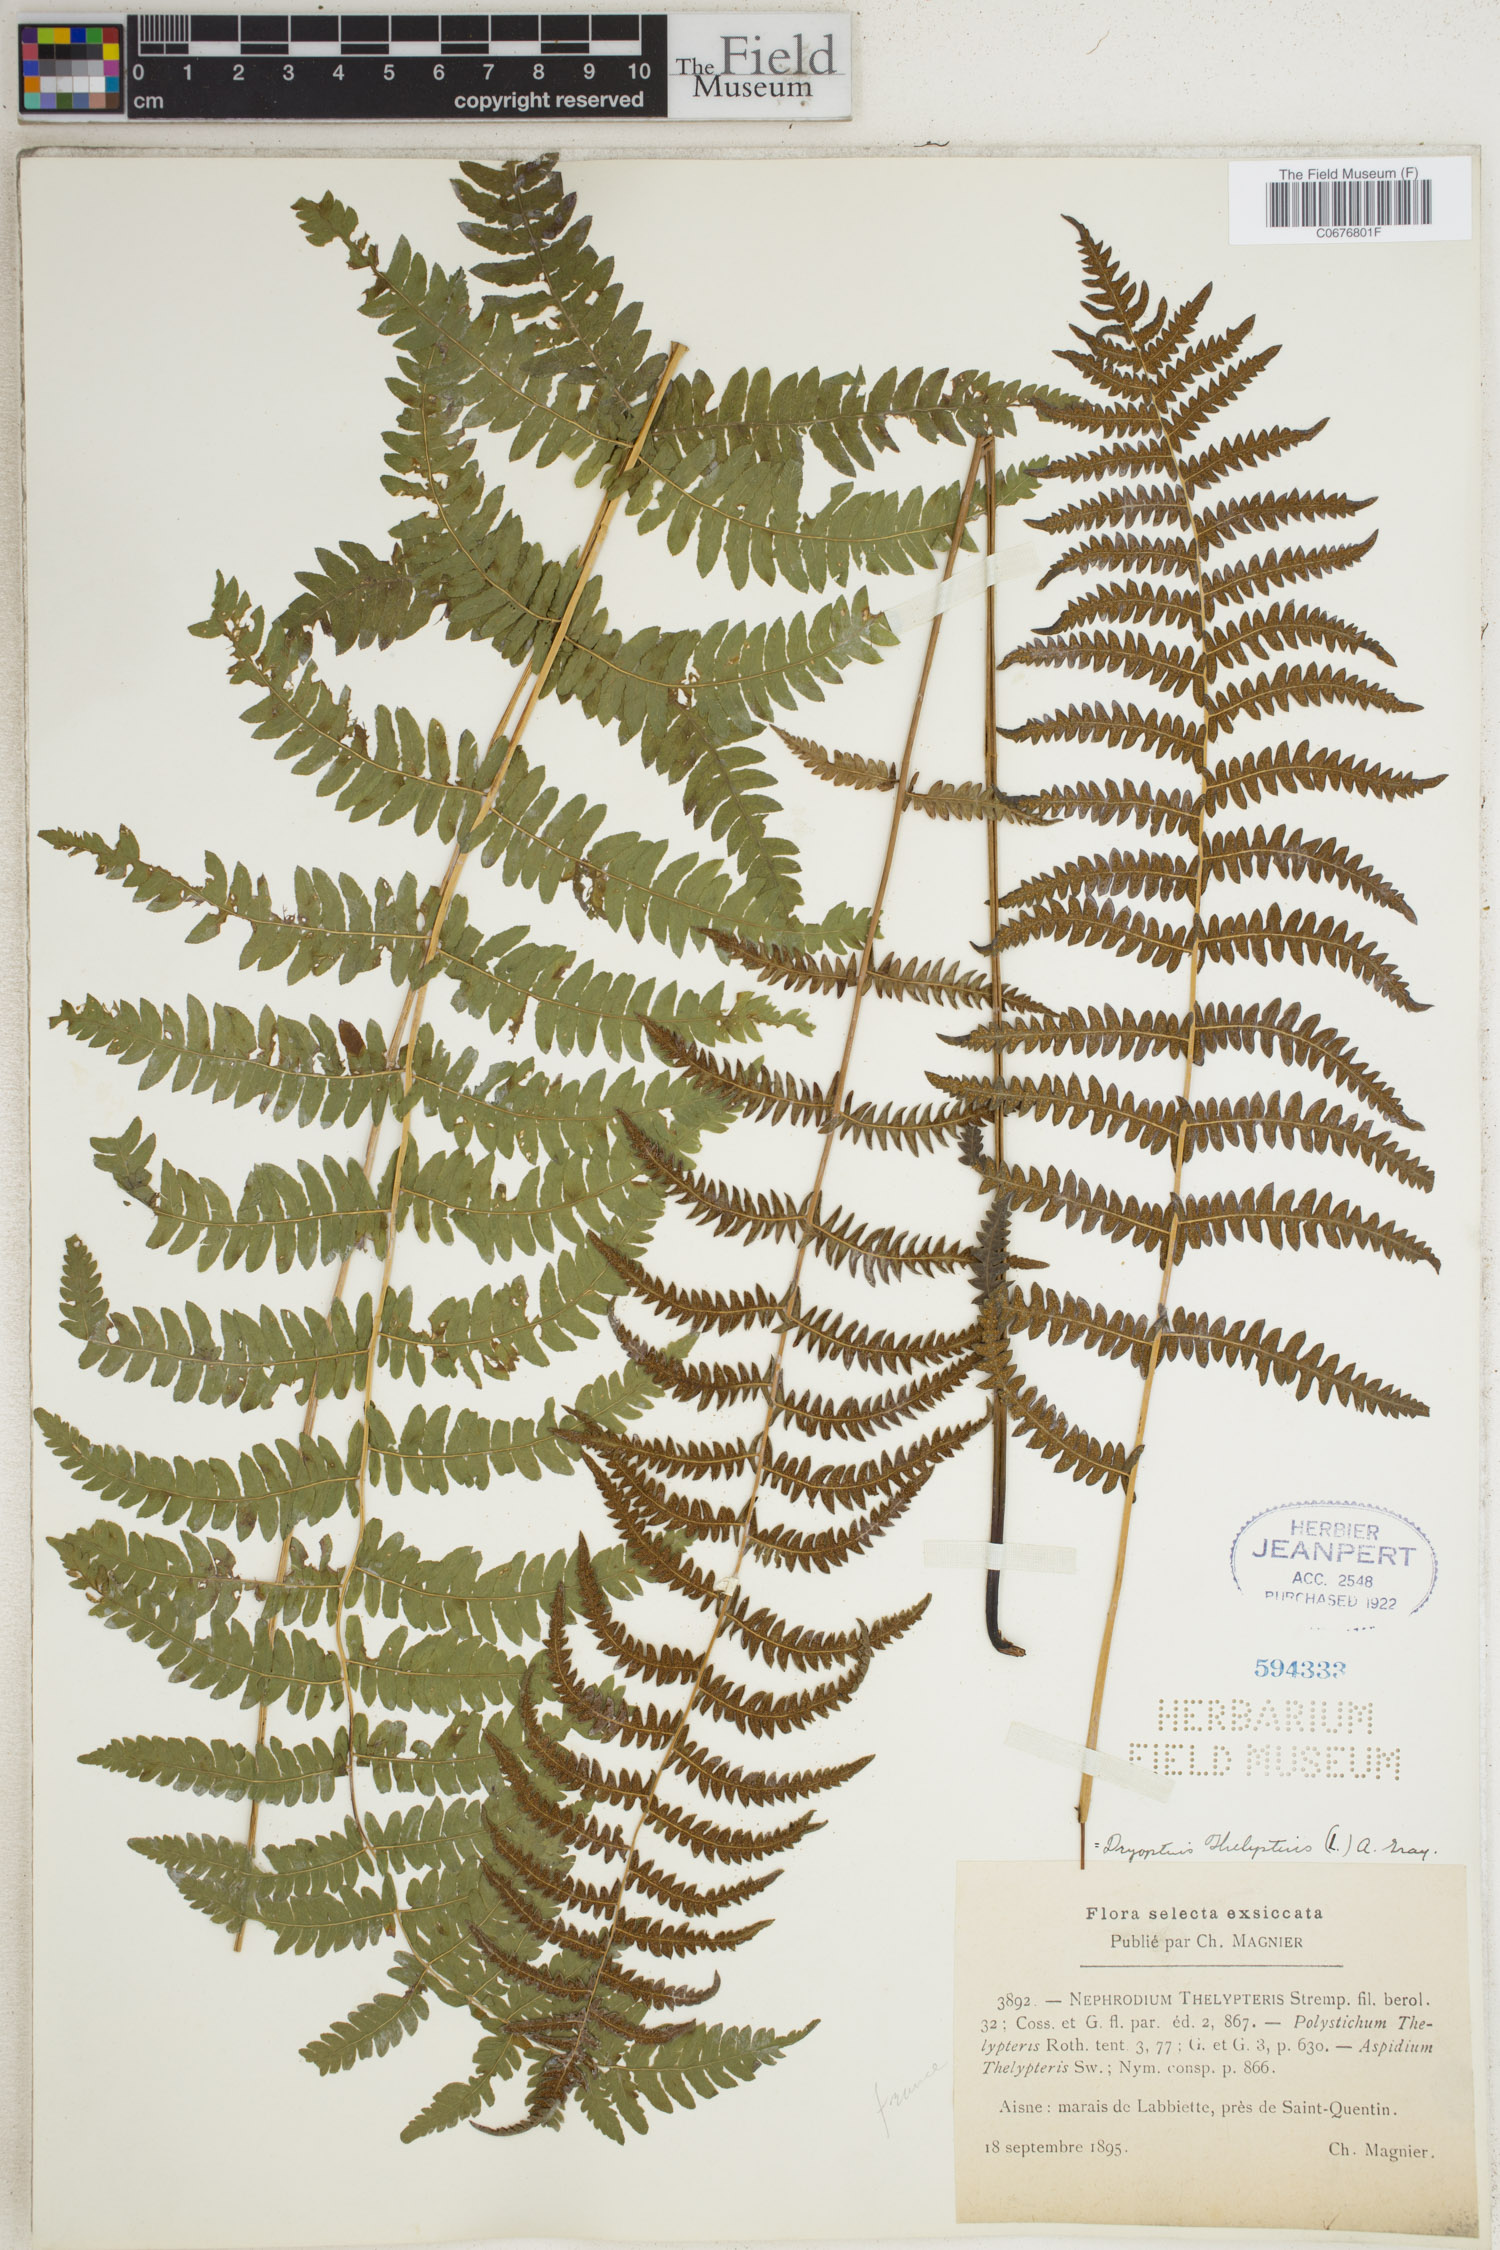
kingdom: Plantae
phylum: Tracheophyta
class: Polypodiopsida
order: Polypodiales
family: Thelypteridaceae
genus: Thelypteris
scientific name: Thelypteris palustris
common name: Marsh fern
